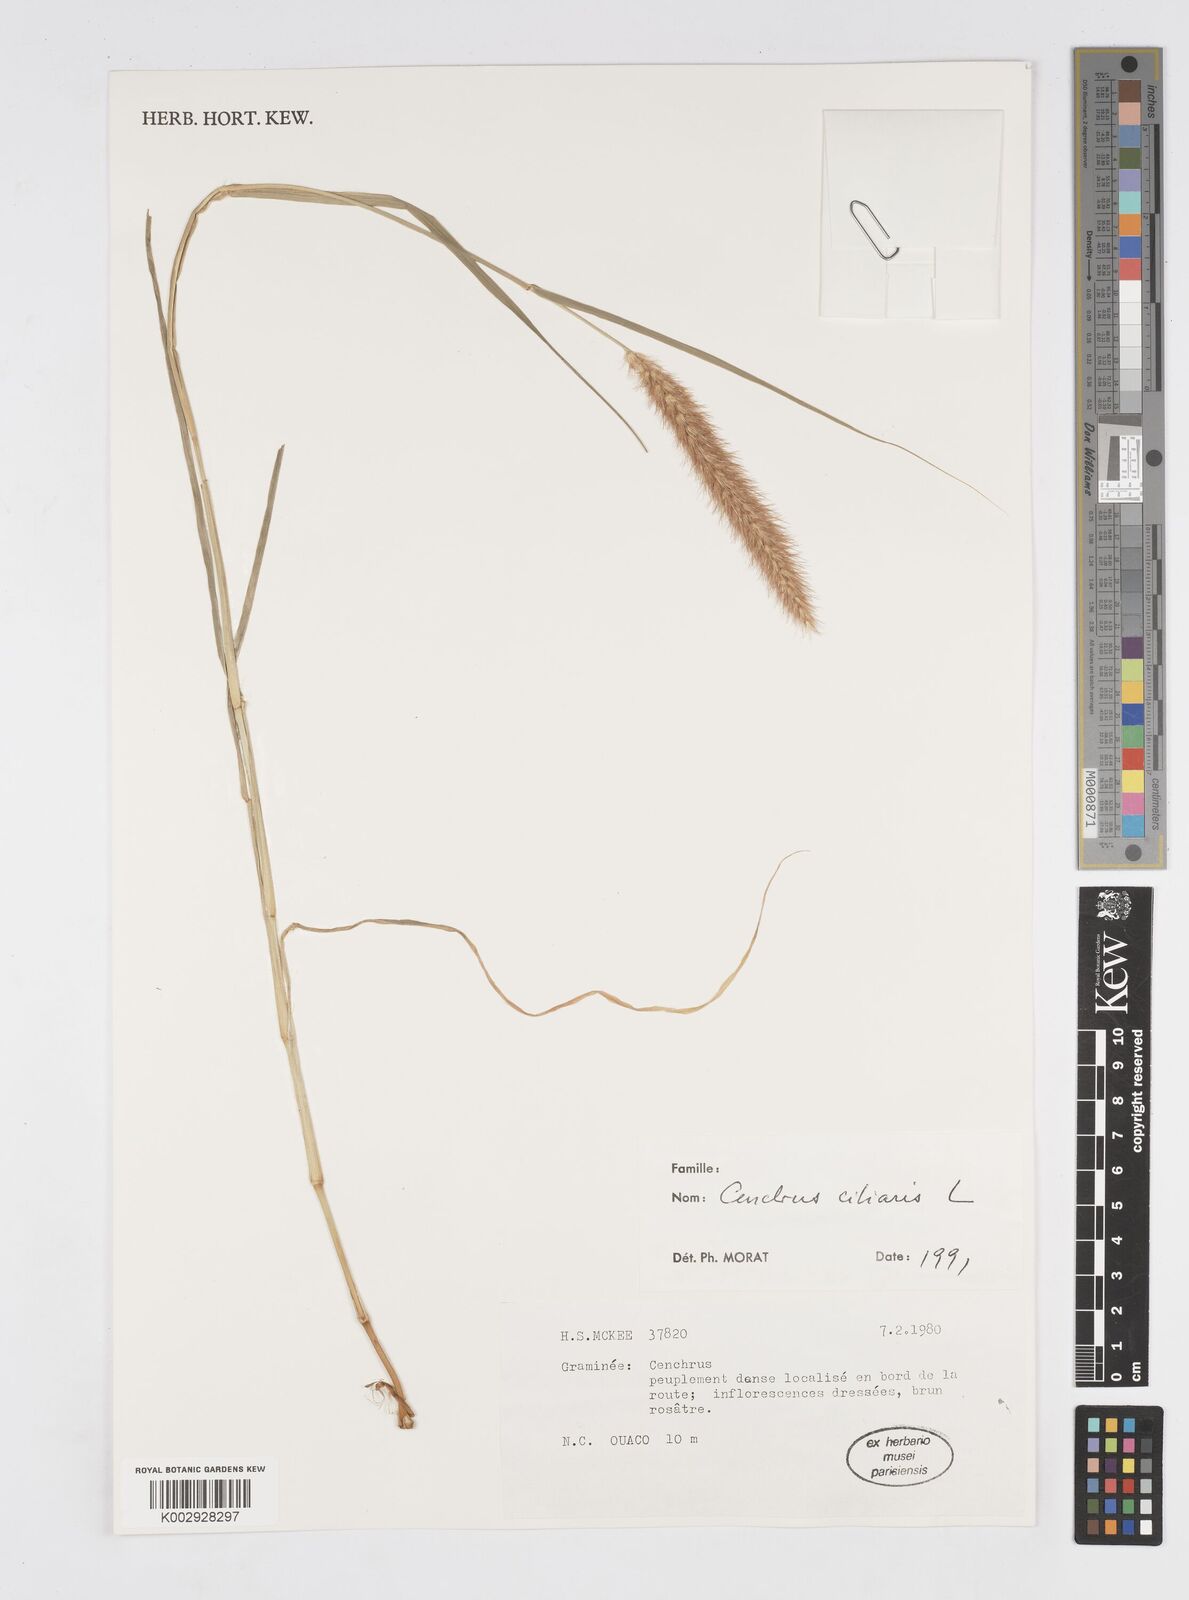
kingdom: Plantae
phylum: Tracheophyta
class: Liliopsida
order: Poales
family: Poaceae
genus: Cenchrus
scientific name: Cenchrus ciliaris
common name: Buffelgrass
